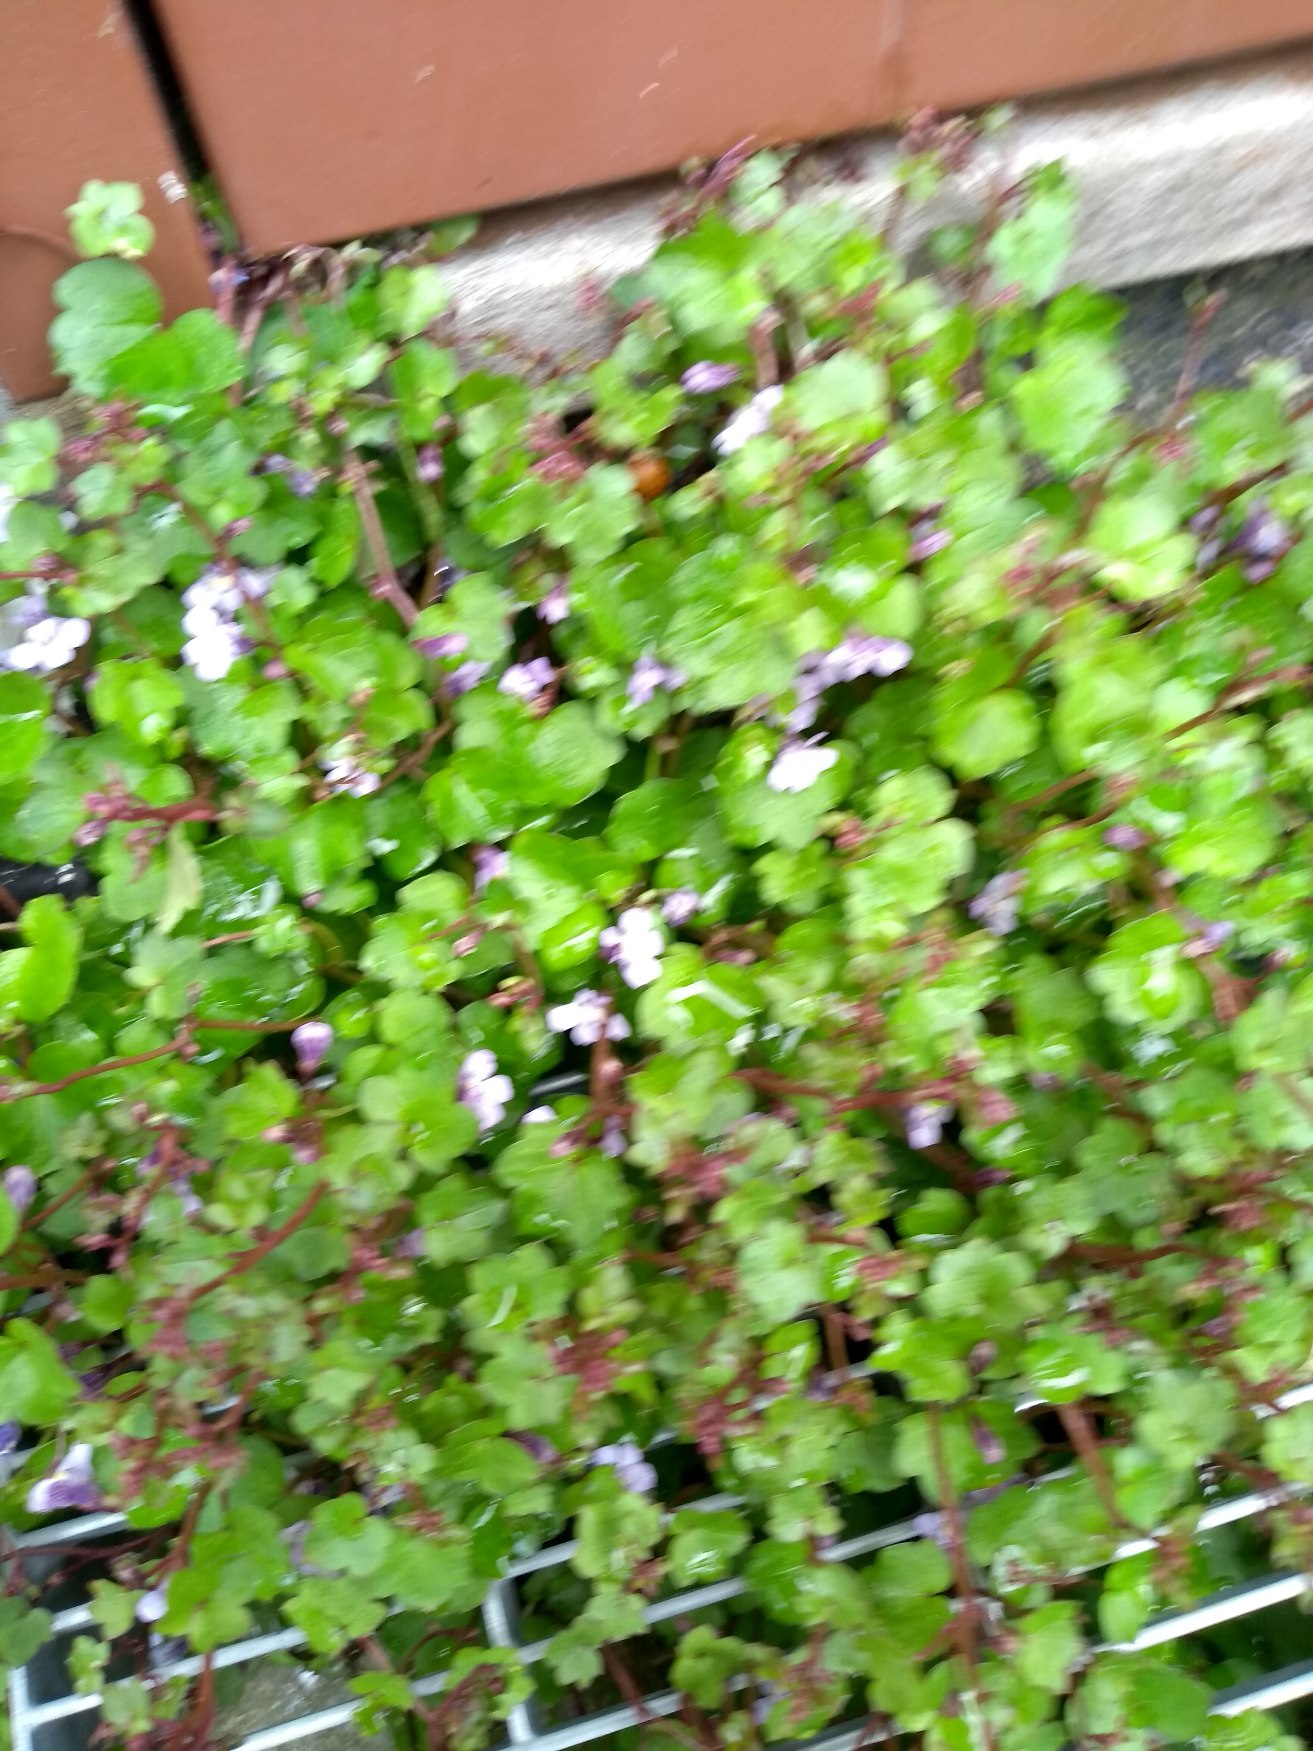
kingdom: Plantae
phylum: Tracheophyta
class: Magnoliopsida
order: Lamiales
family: Plantaginaceae
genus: Cymbalaria
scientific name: Cymbalaria muralis
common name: Vedbend-torskemund
